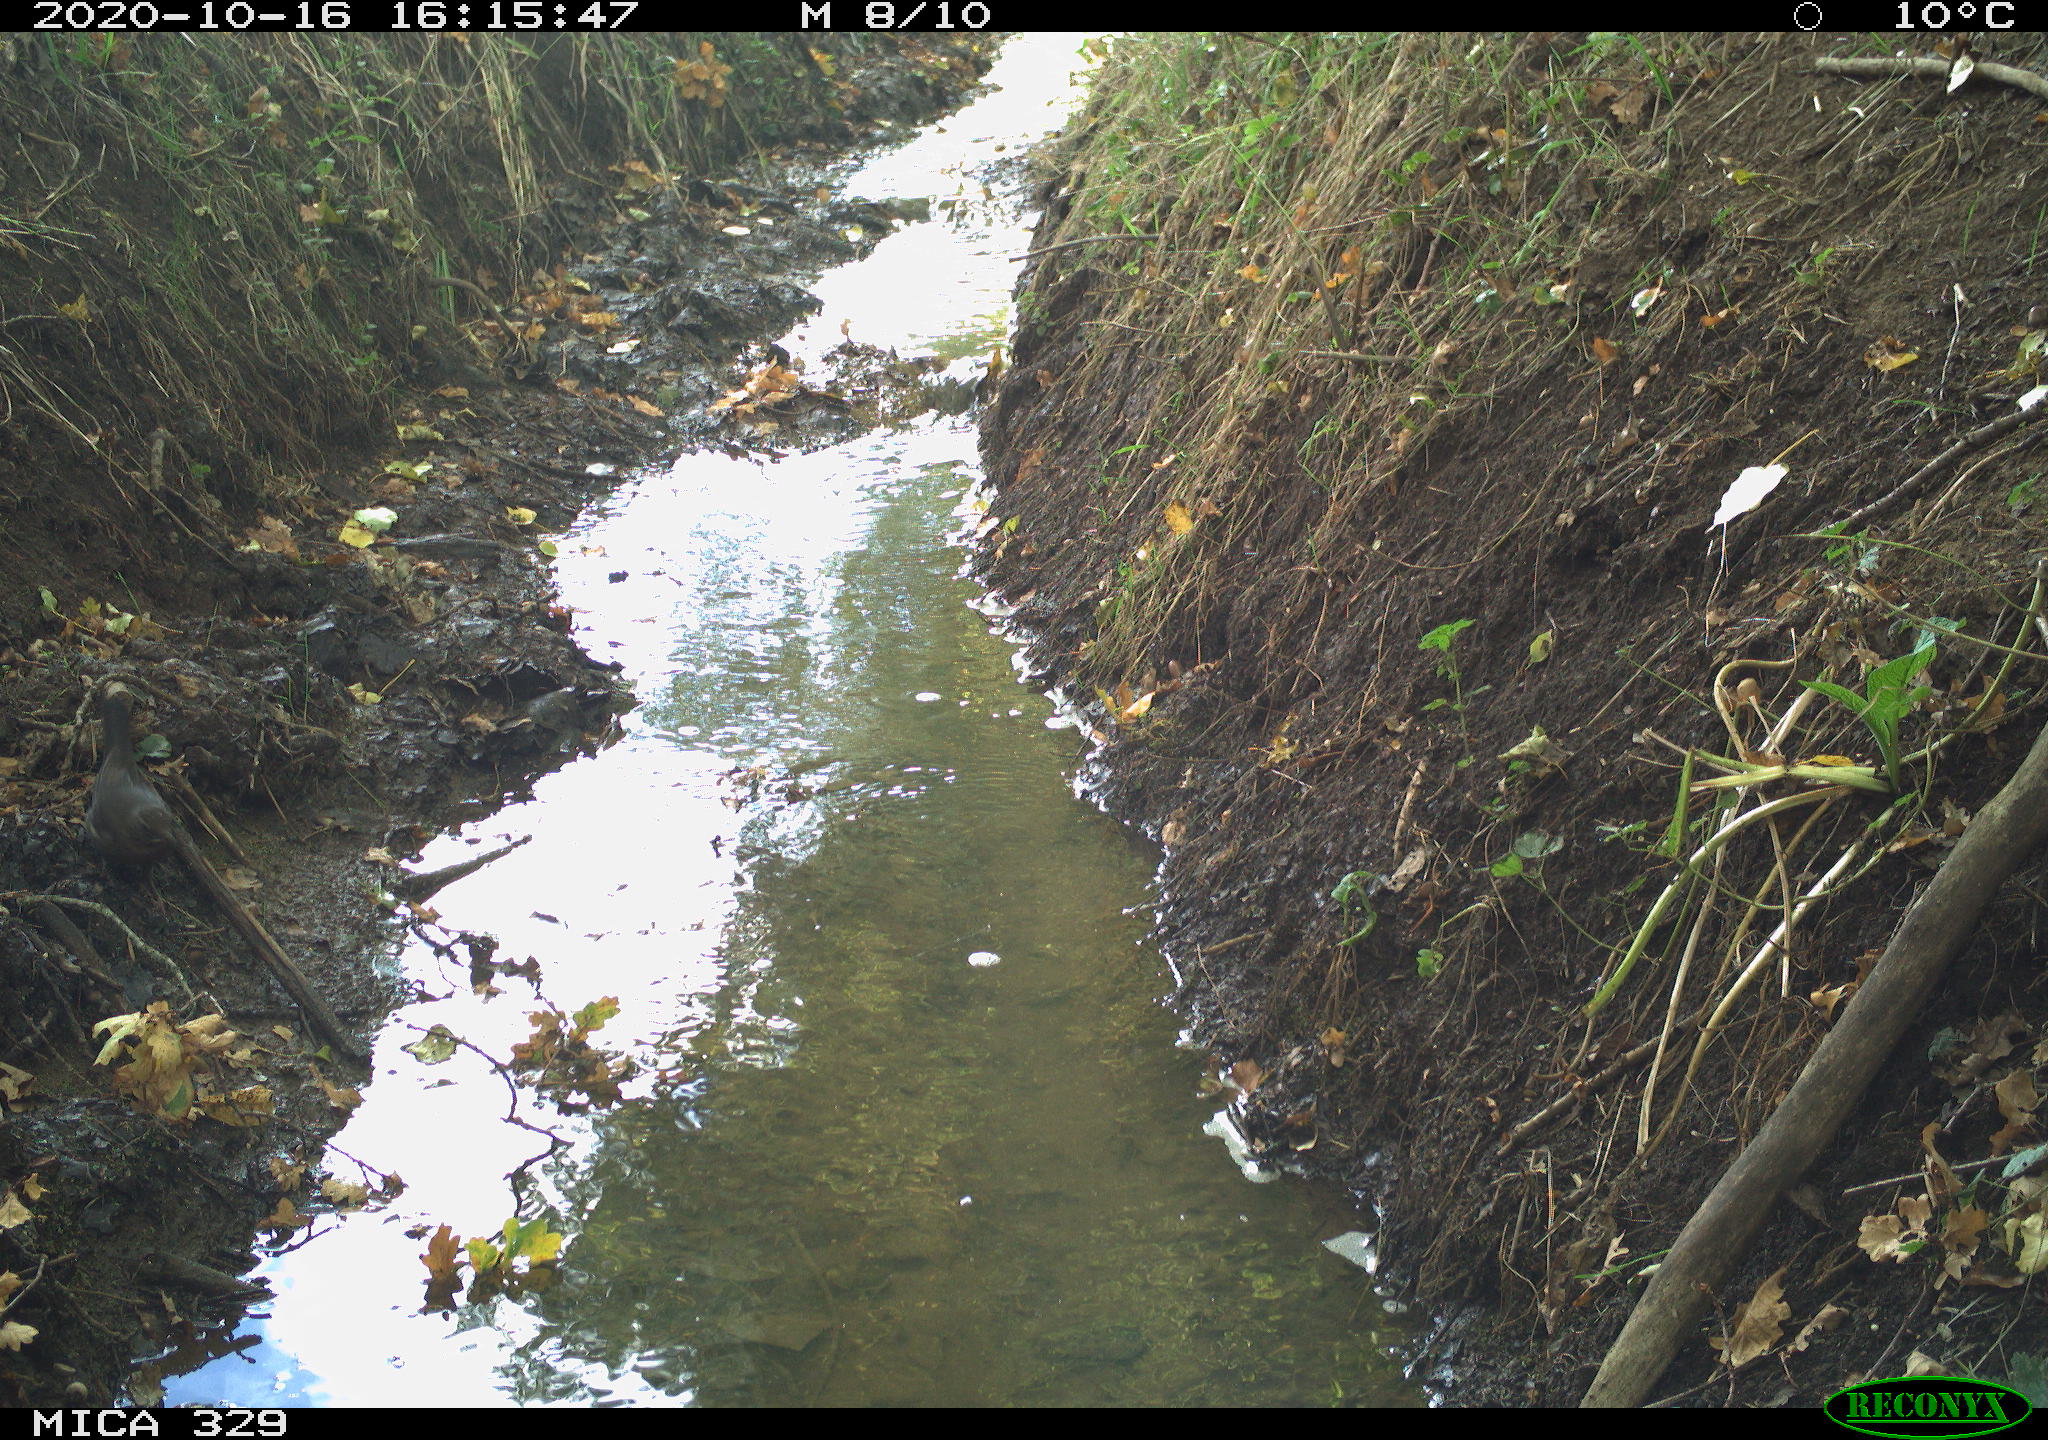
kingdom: Animalia
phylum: Chordata
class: Aves
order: Passeriformes
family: Turdidae
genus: Turdus
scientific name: Turdus merula
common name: Common blackbird
